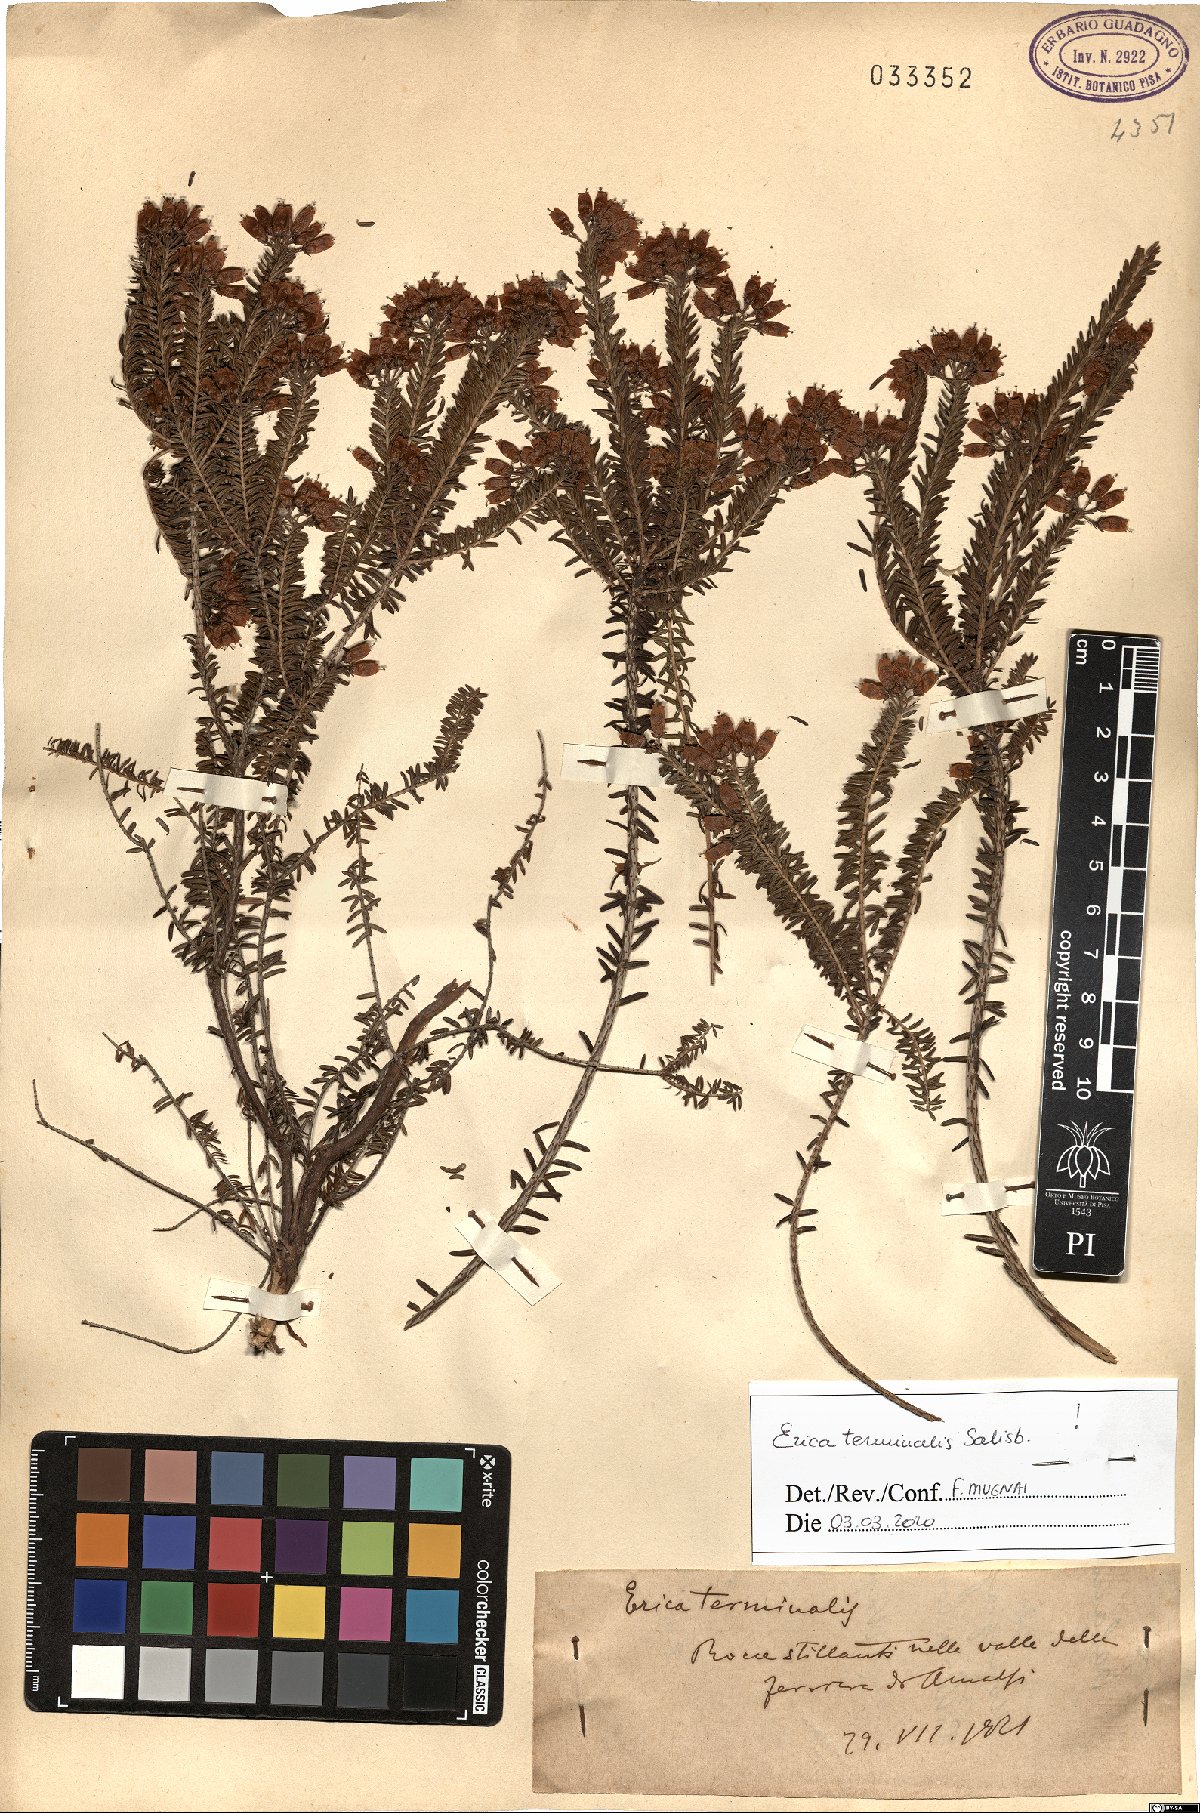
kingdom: Plantae
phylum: Tracheophyta
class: Magnoliopsida
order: Ericales
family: Ericaceae
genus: Erica
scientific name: Erica terminalis
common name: Corsican heath
